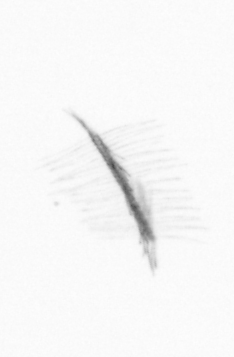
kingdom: Chromista
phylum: Ochrophyta
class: Bacillariophyceae
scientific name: Bacillariophyceae
